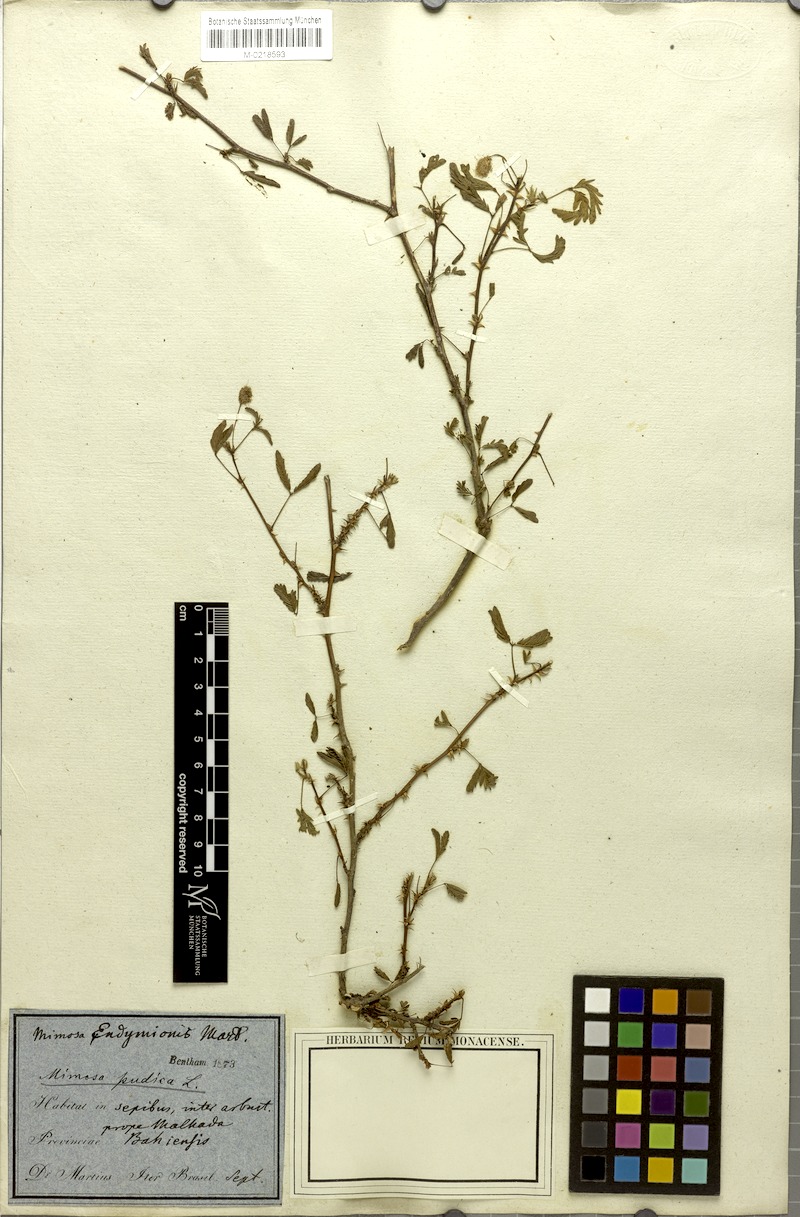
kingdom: Plantae
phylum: Tracheophyta
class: Magnoliopsida
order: Fabales
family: Fabaceae
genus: Mimosa
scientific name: Mimosa pudica
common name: Sensitive plant
